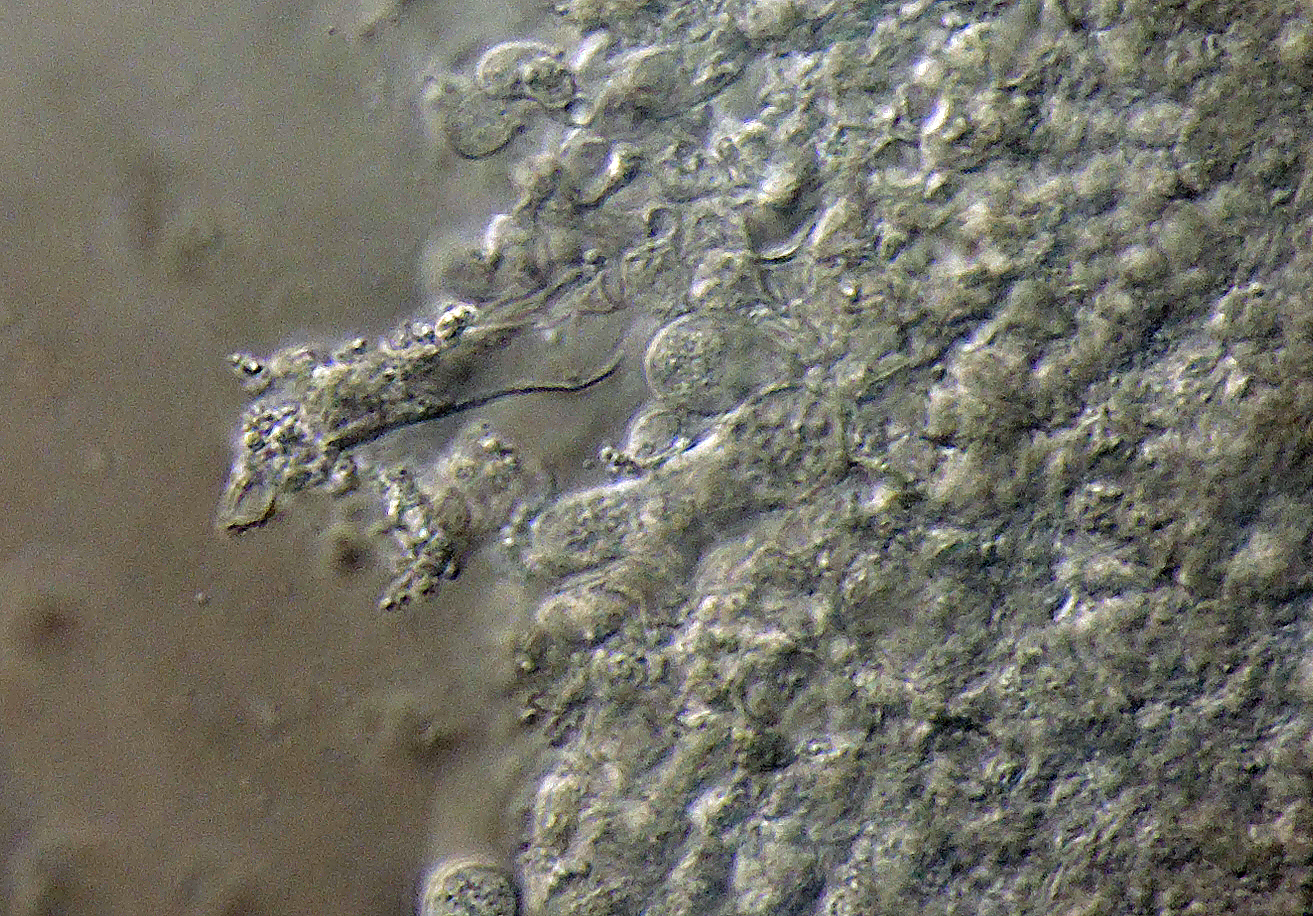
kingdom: Fungi
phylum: Basidiomycota
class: Agaricomycetes
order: Cantharellales
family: Hydnaceae
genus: Sistotrema
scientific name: Sistotrema raduloides
